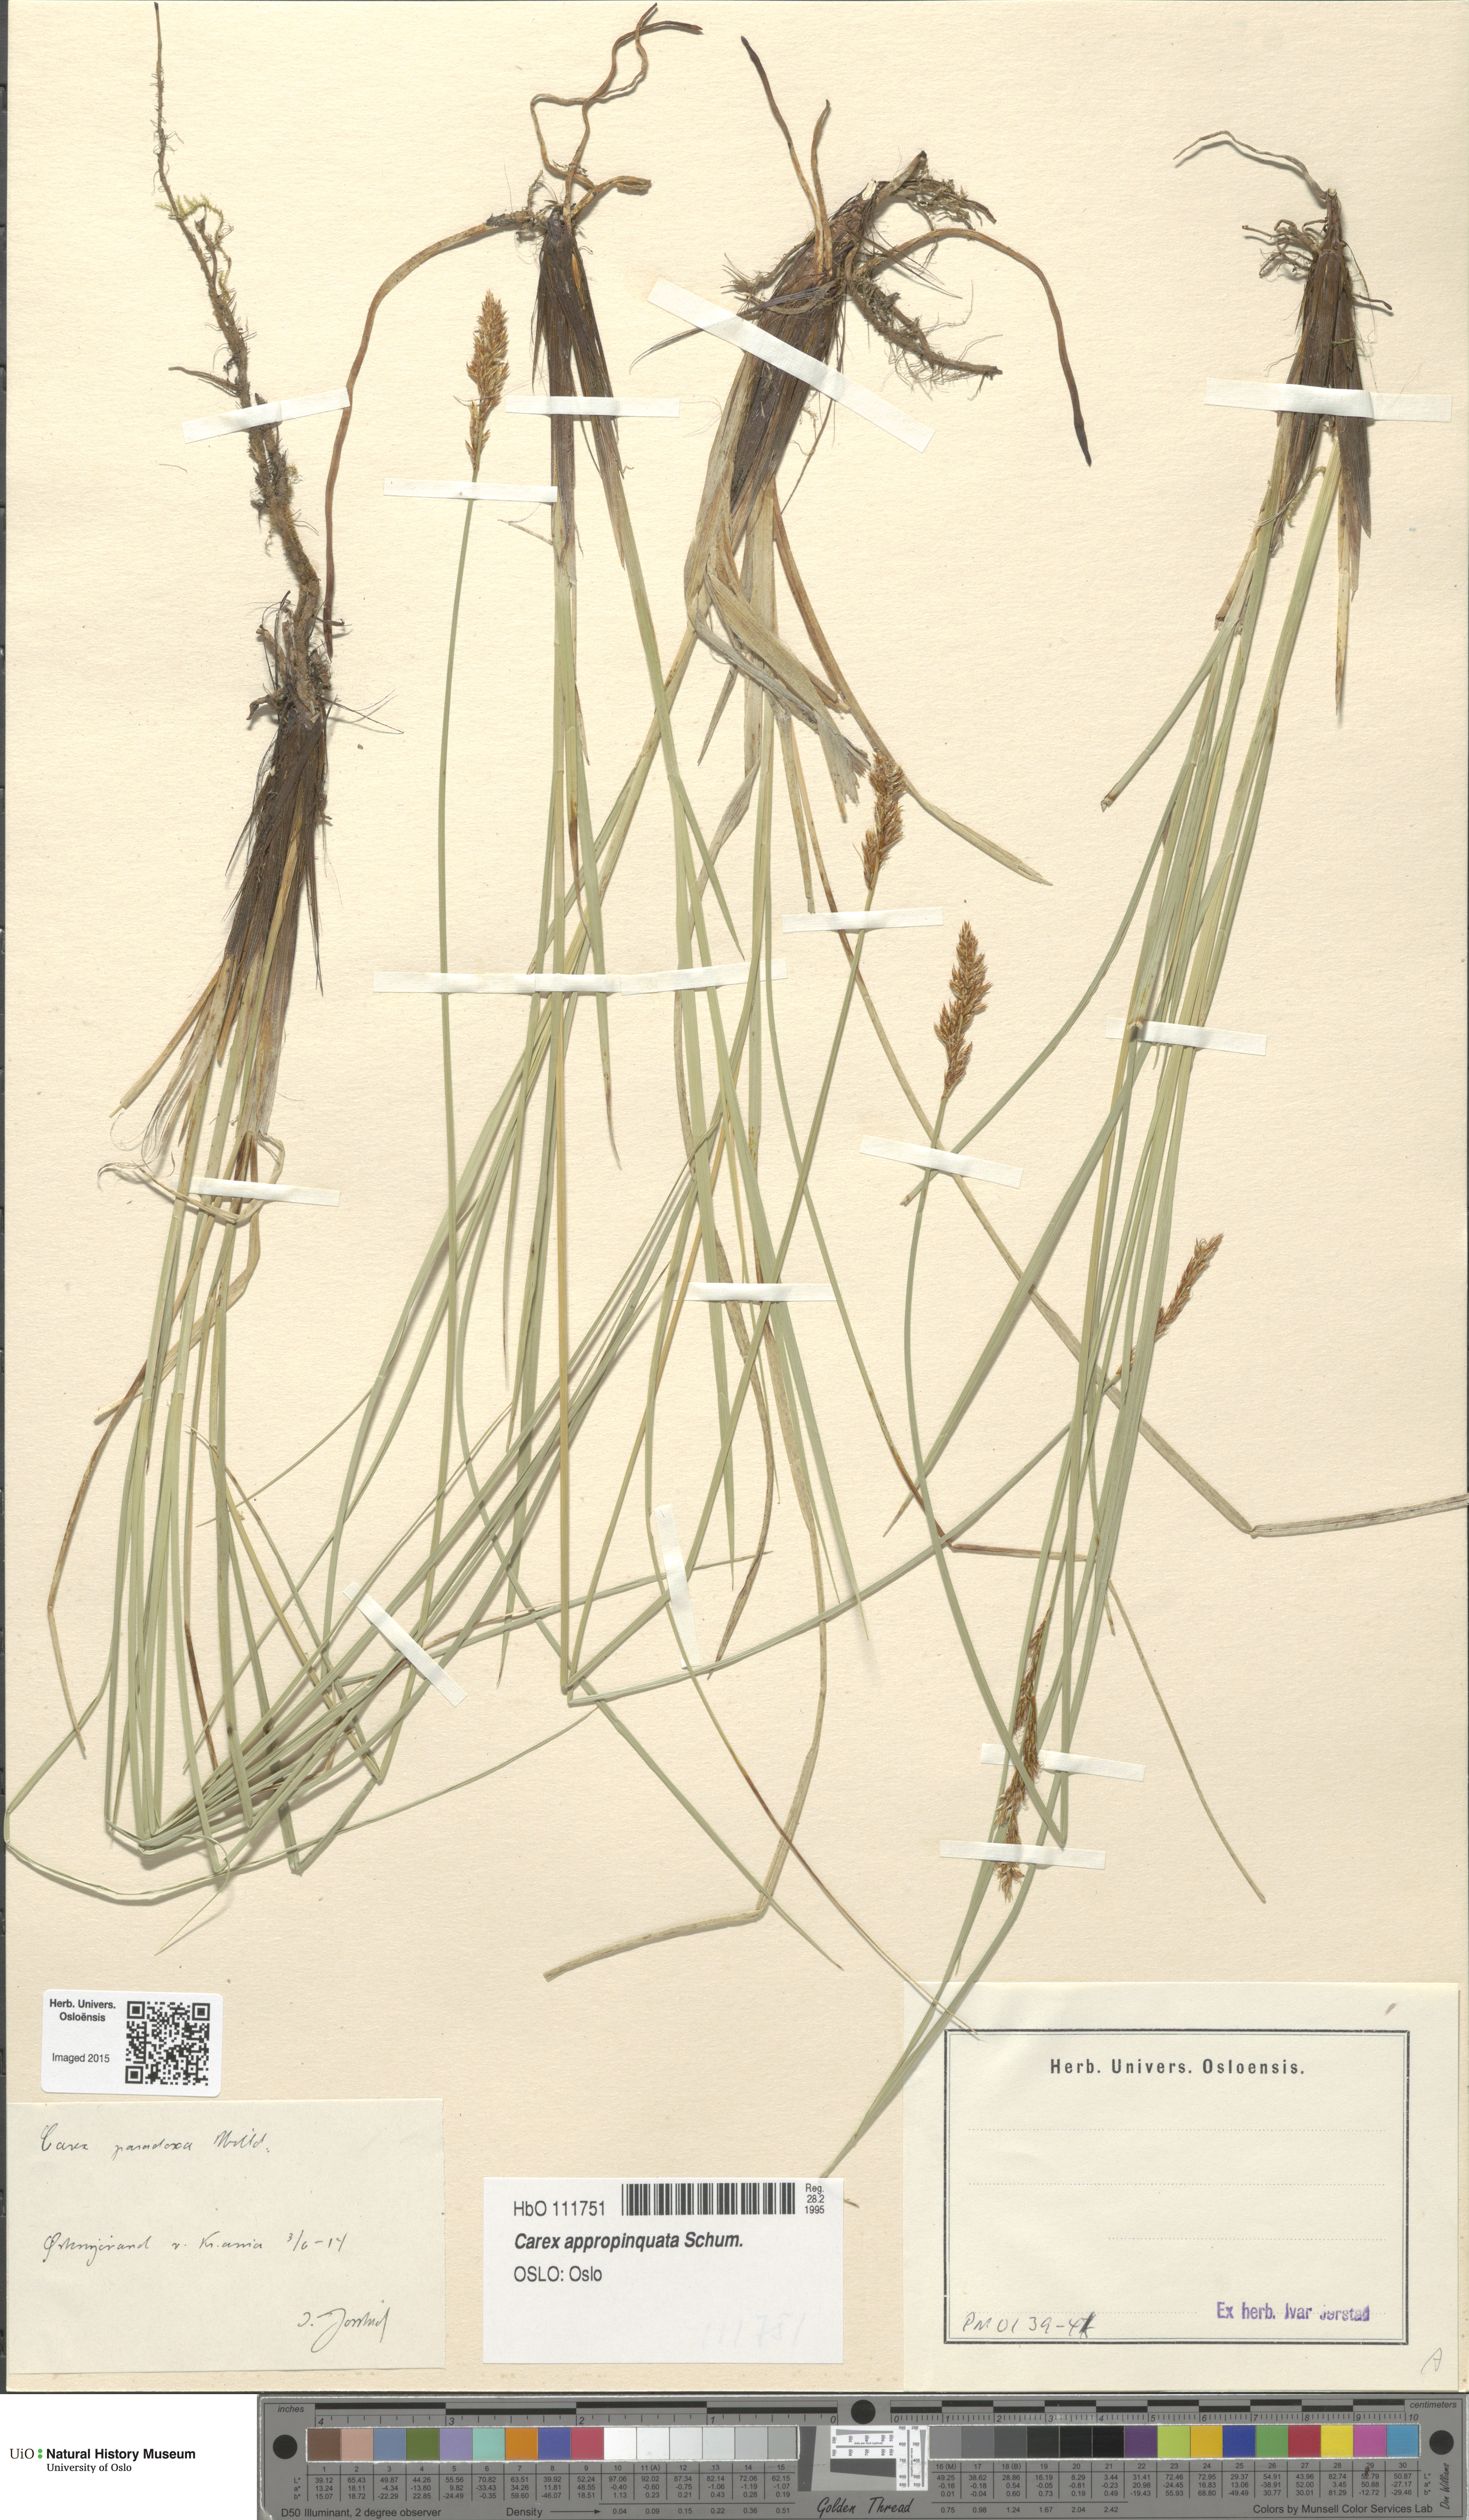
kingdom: Plantae
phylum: Tracheophyta
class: Liliopsida
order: Poales
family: Cyperaceae
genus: Carex
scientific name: Carex appropinquata
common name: Fibrous tussock-sedge
